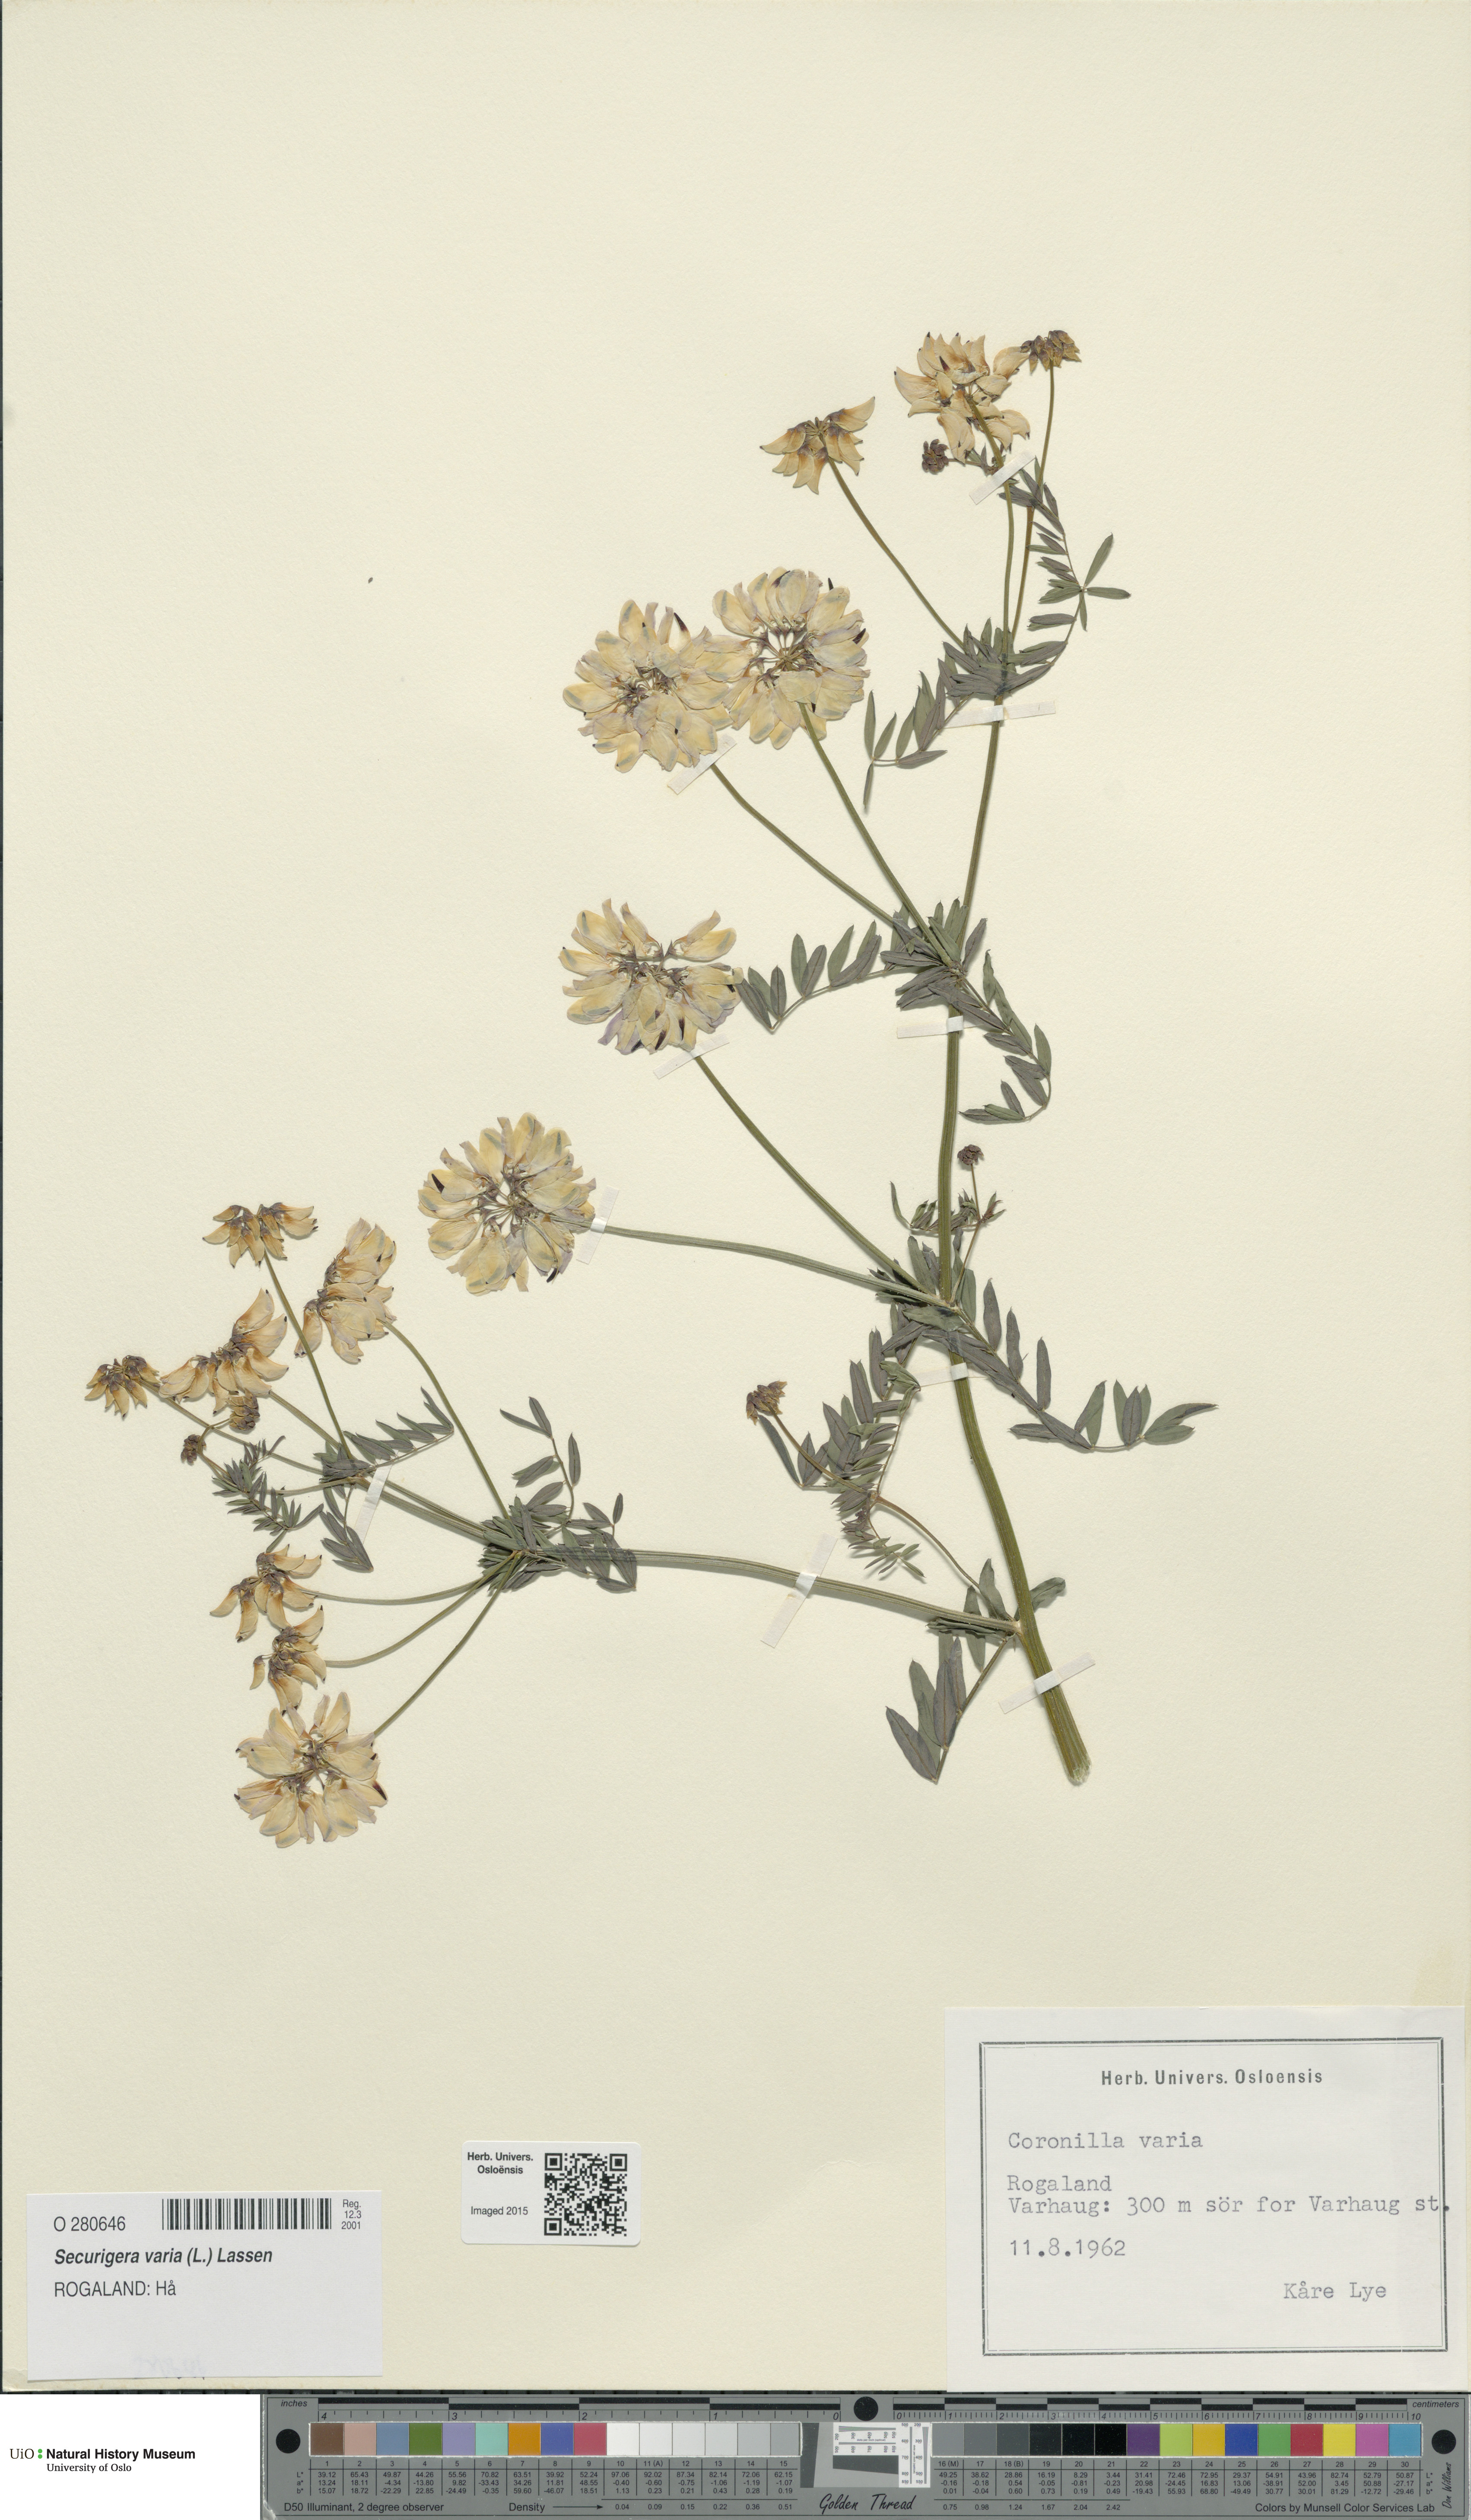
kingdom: Plantae
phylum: Tracheophyta
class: Magnoliopsida
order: Fabales
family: Fabaceae
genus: Coronilla
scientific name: Coronilla varia
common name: Crownvetch
